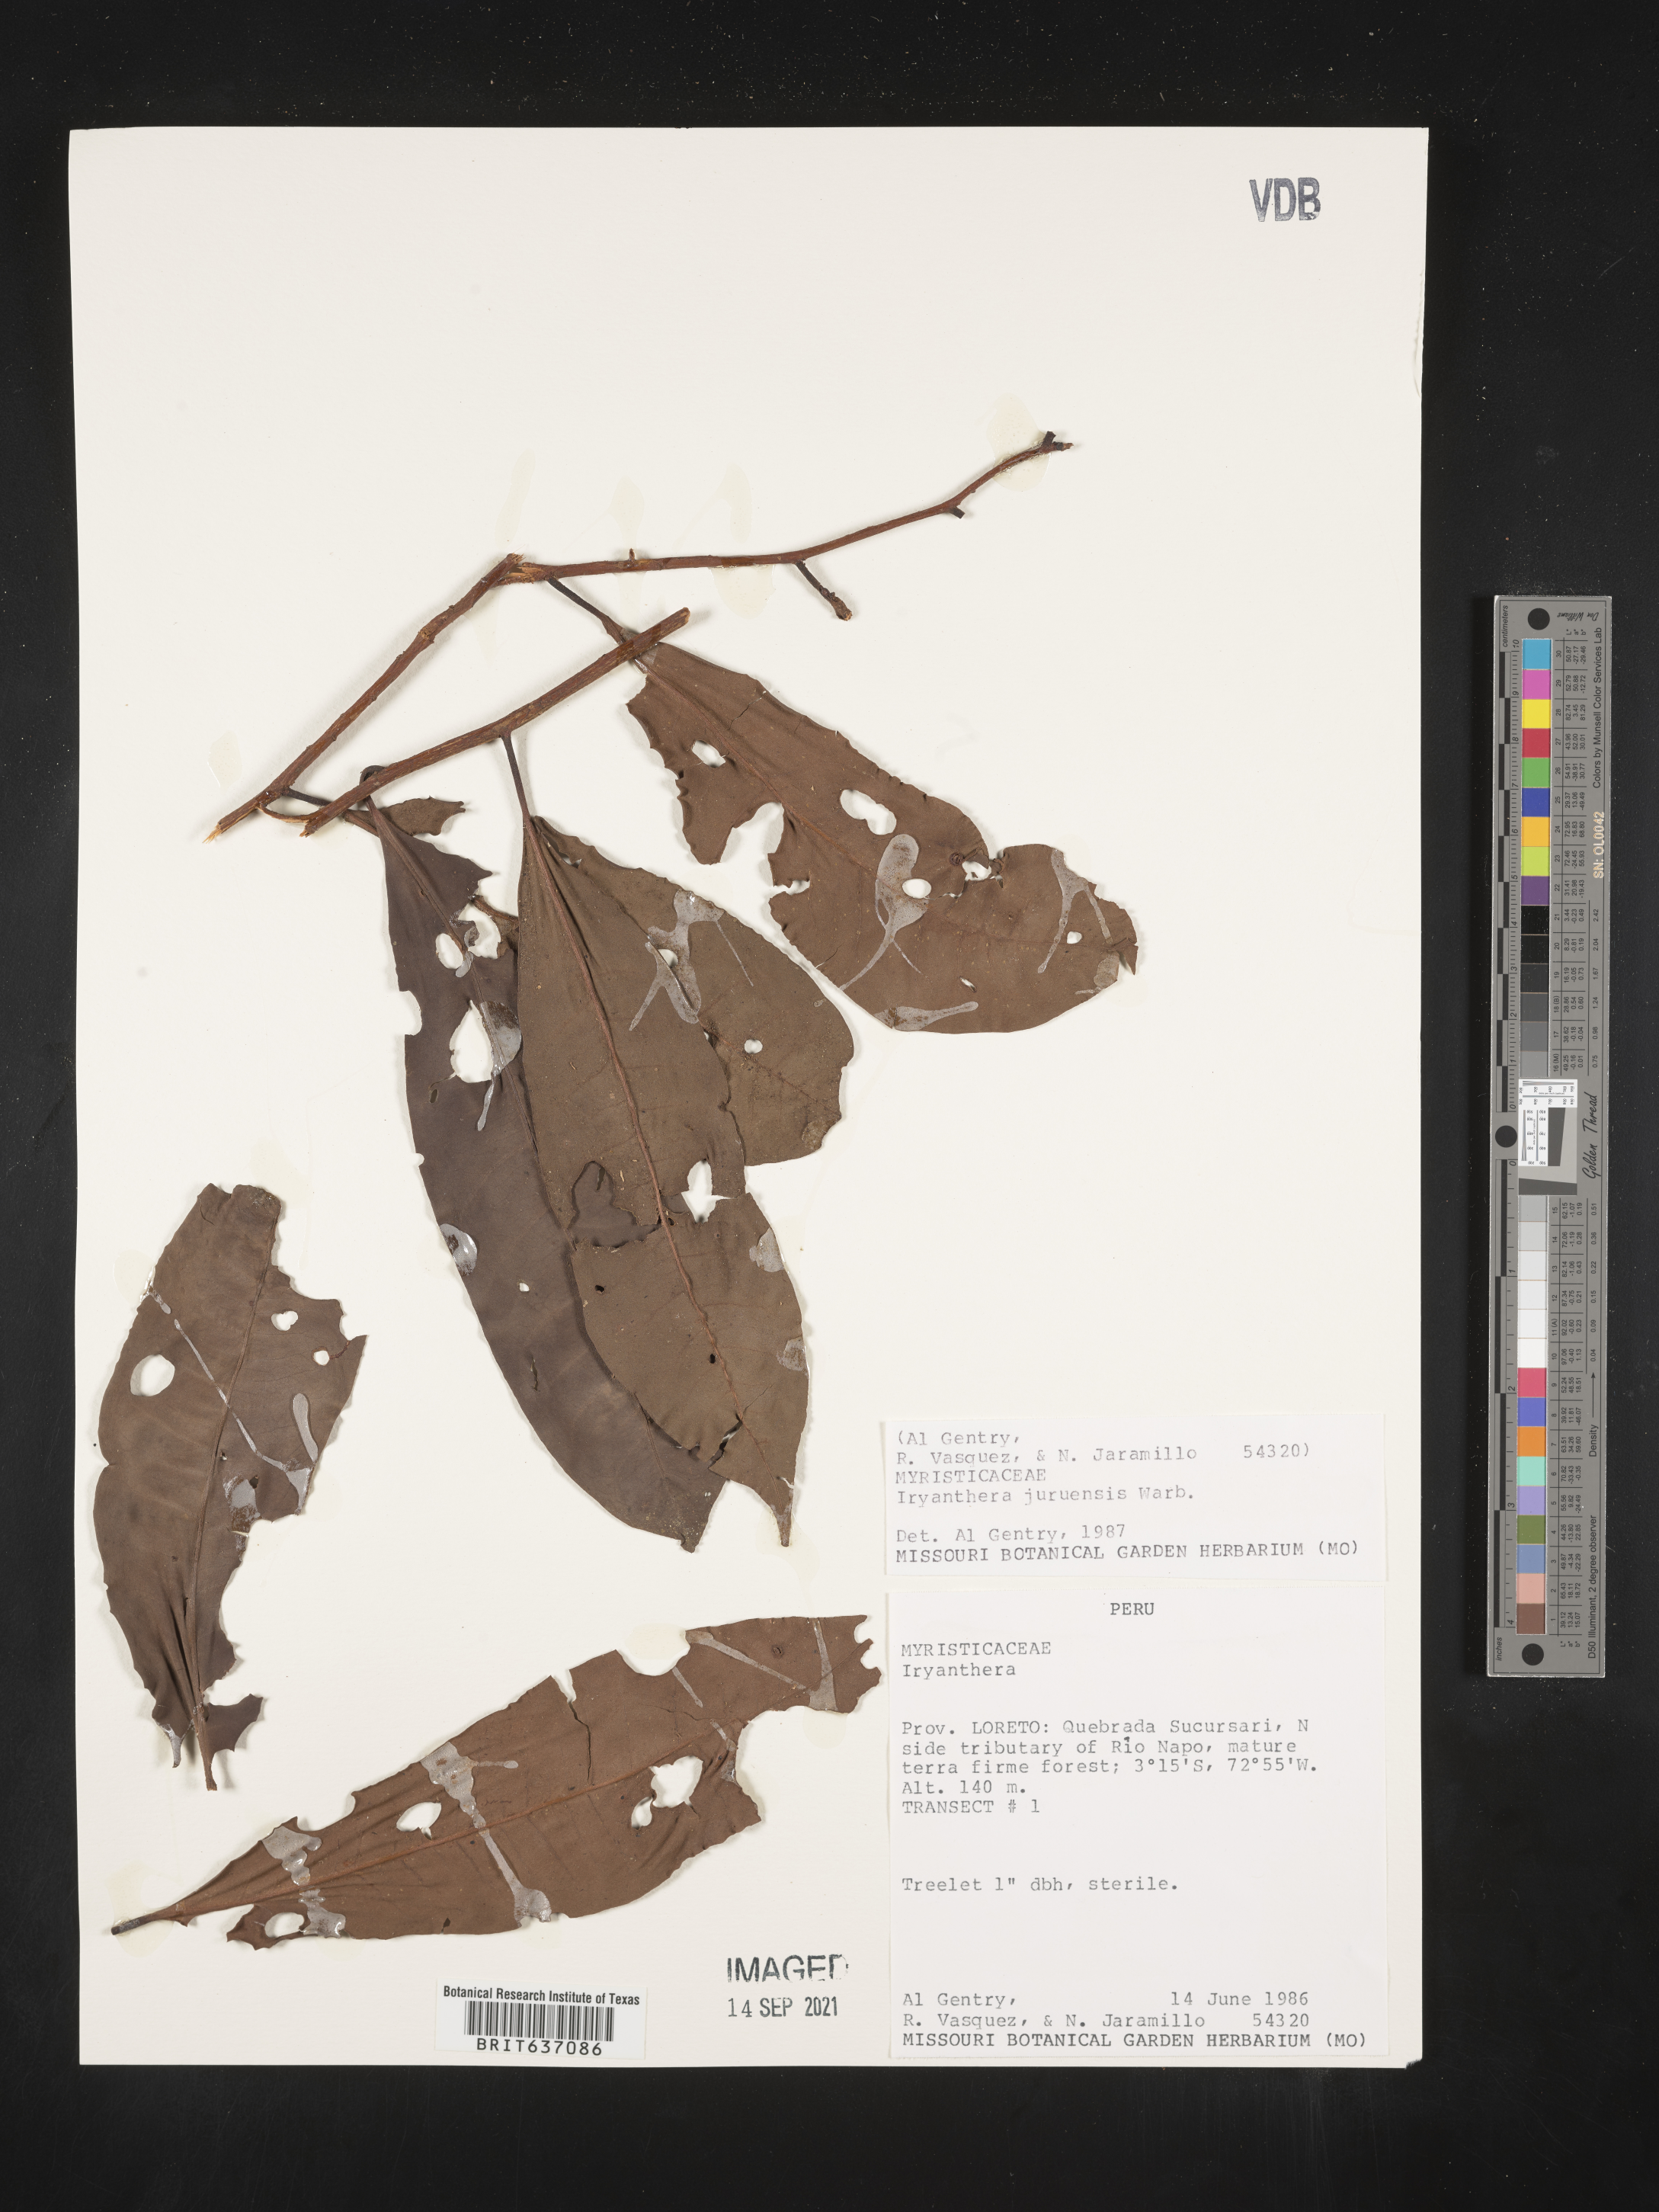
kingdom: Plantae
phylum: Tracheophyta
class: Magnoliopsida
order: Magnoliales
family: Myristicaceae
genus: Iryanthera
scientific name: Iryanthera
